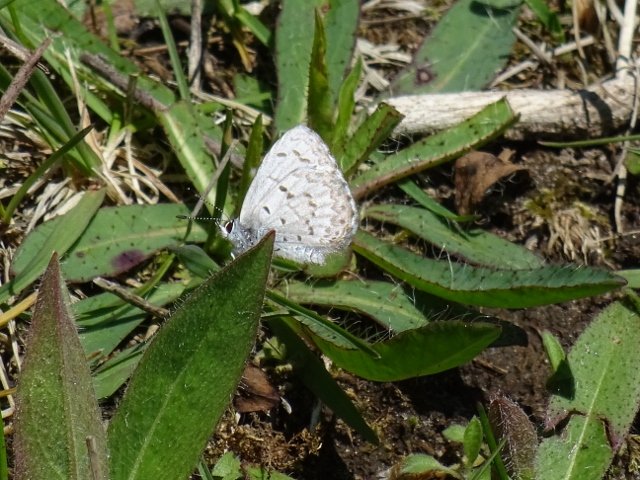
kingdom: Animalia
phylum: Arthropoda
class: Insecta
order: Lepidoptera
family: Lycaenidae
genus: Celastrina
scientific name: Celastrina
